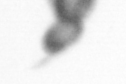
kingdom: Animalia
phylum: Arthropoda
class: Copepoda
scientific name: Copepoda
